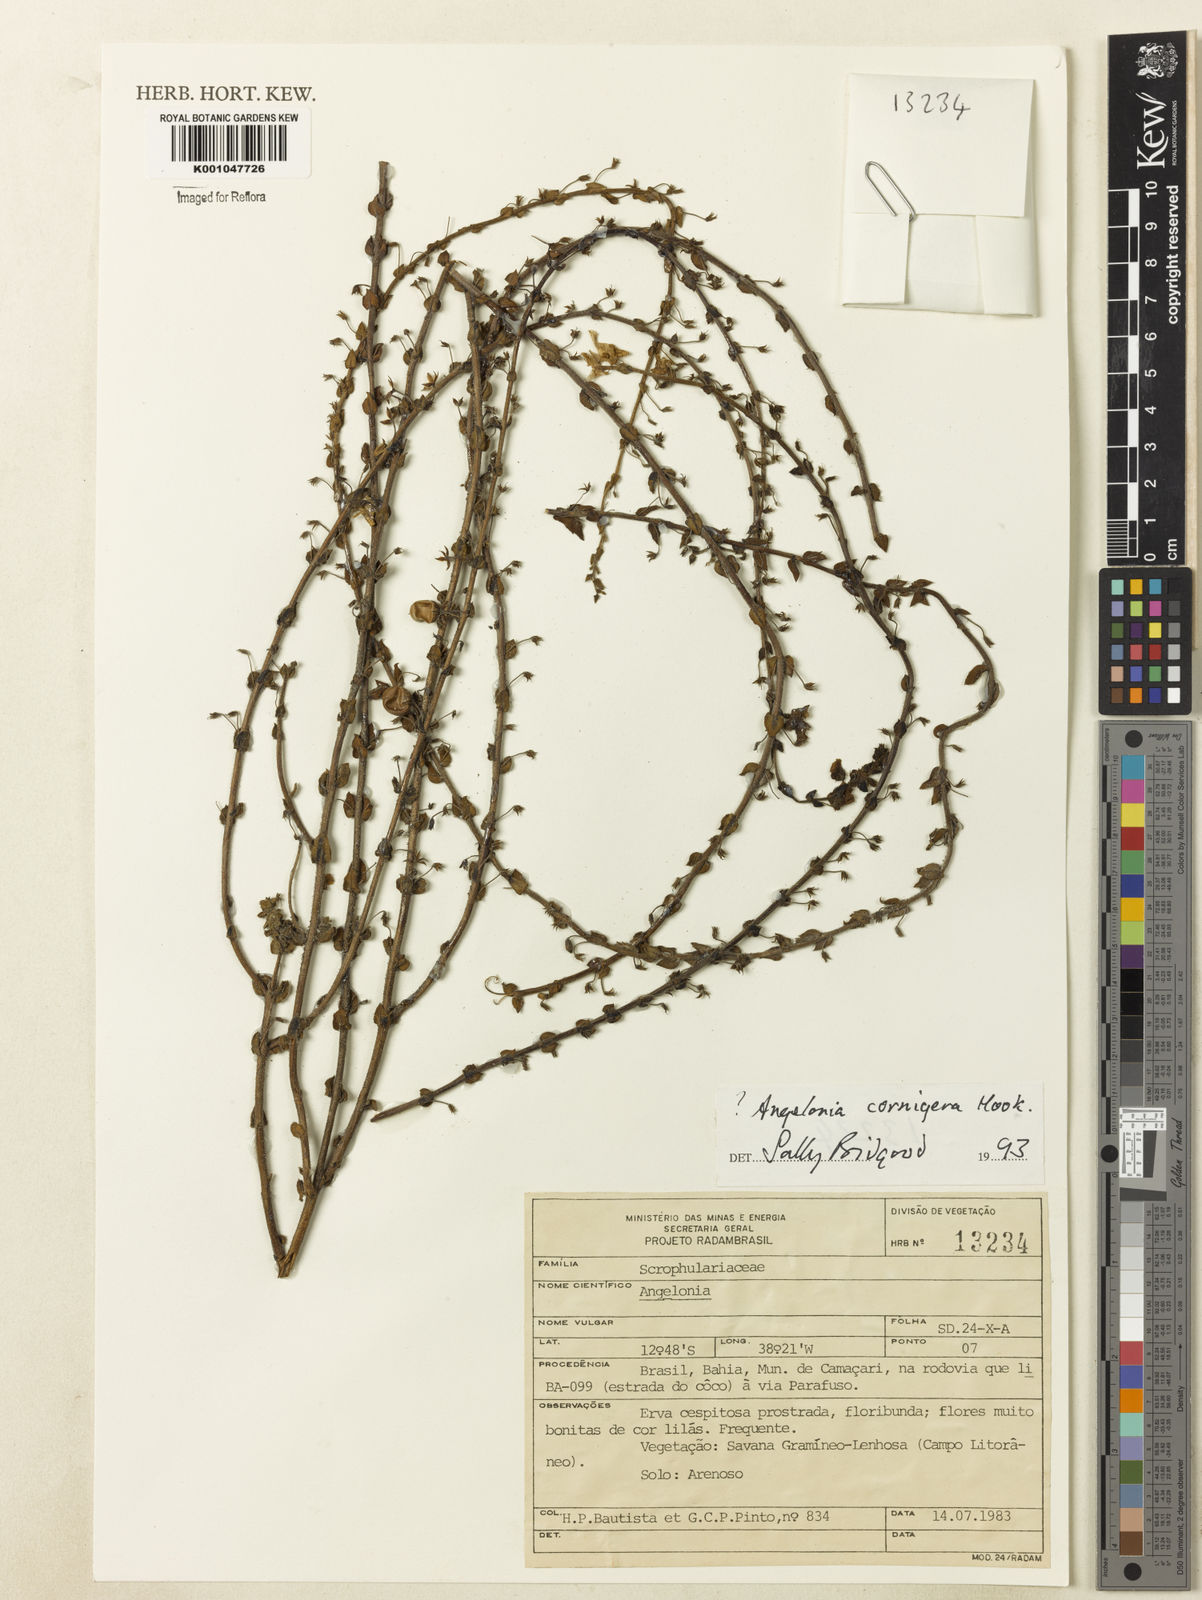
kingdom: Plantae
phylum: Tracheophyta
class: Magnoliopsida
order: Lamiales
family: Plantaginaceae
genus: Angelonia
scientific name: Angelonia cornigera
